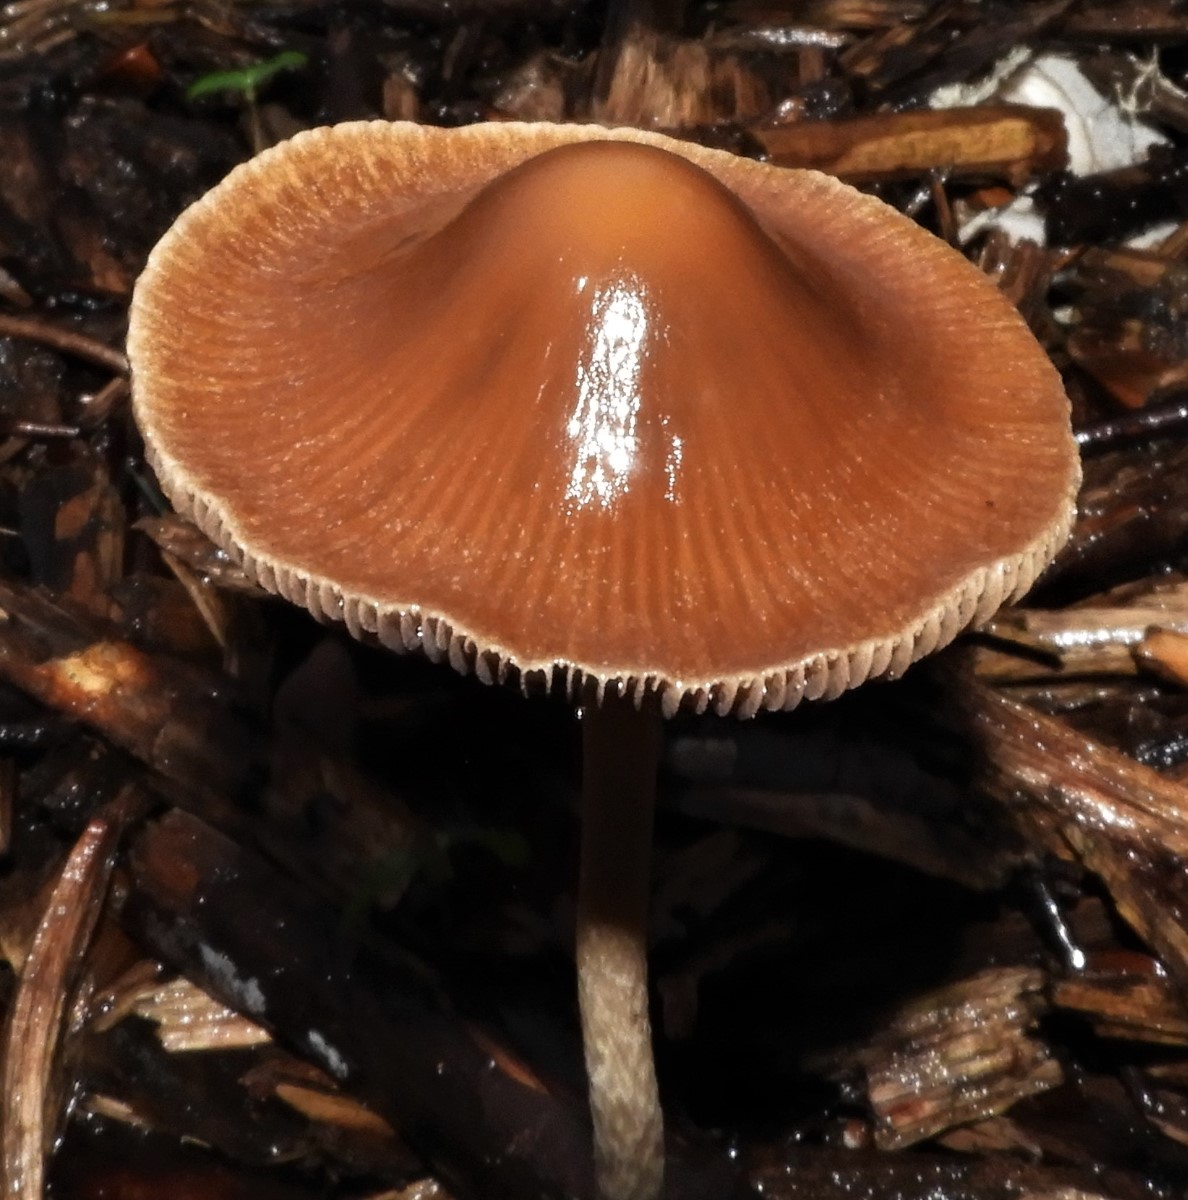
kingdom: Fungi
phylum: Basidiomycota
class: Agaricomycetes
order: Agaricales
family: Psathyrellaceae
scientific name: Psathyrellaceae
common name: mørkhatfamilien
